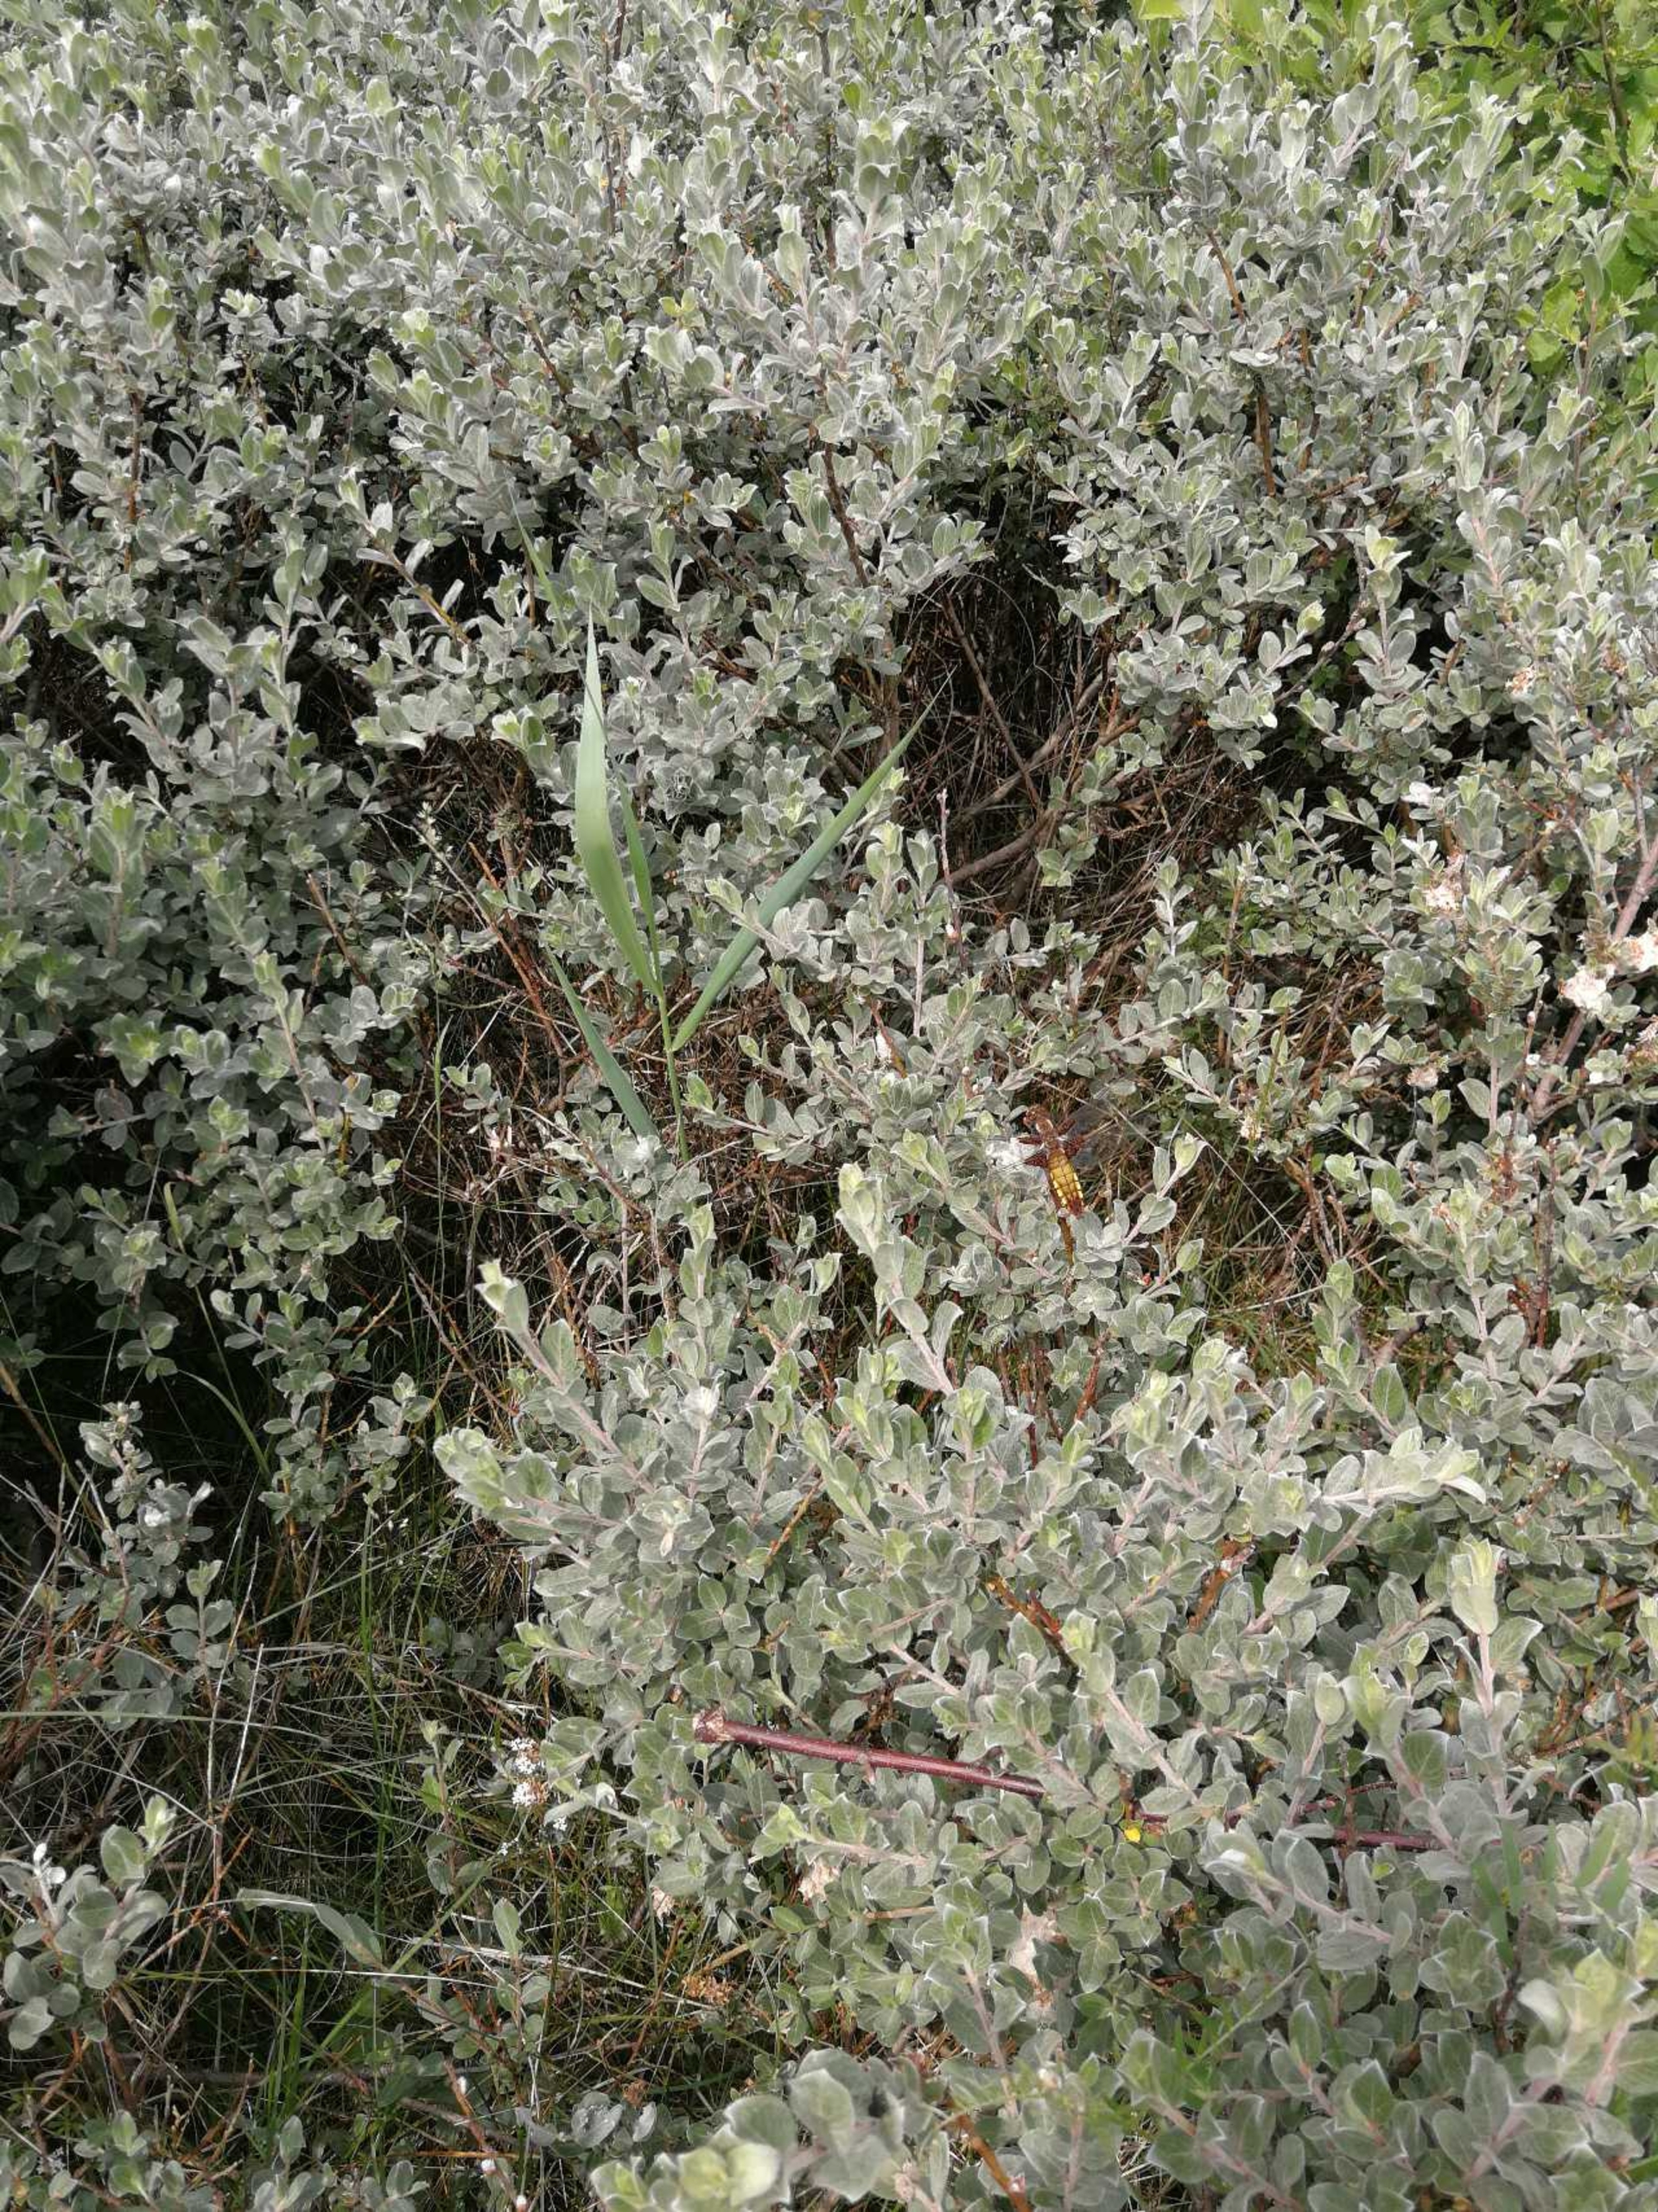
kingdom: Animalia
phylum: Arthropoda
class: Insecta
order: Odonata
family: Libellulidae
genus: Libellula
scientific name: Libellula depressa
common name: Blå libel
